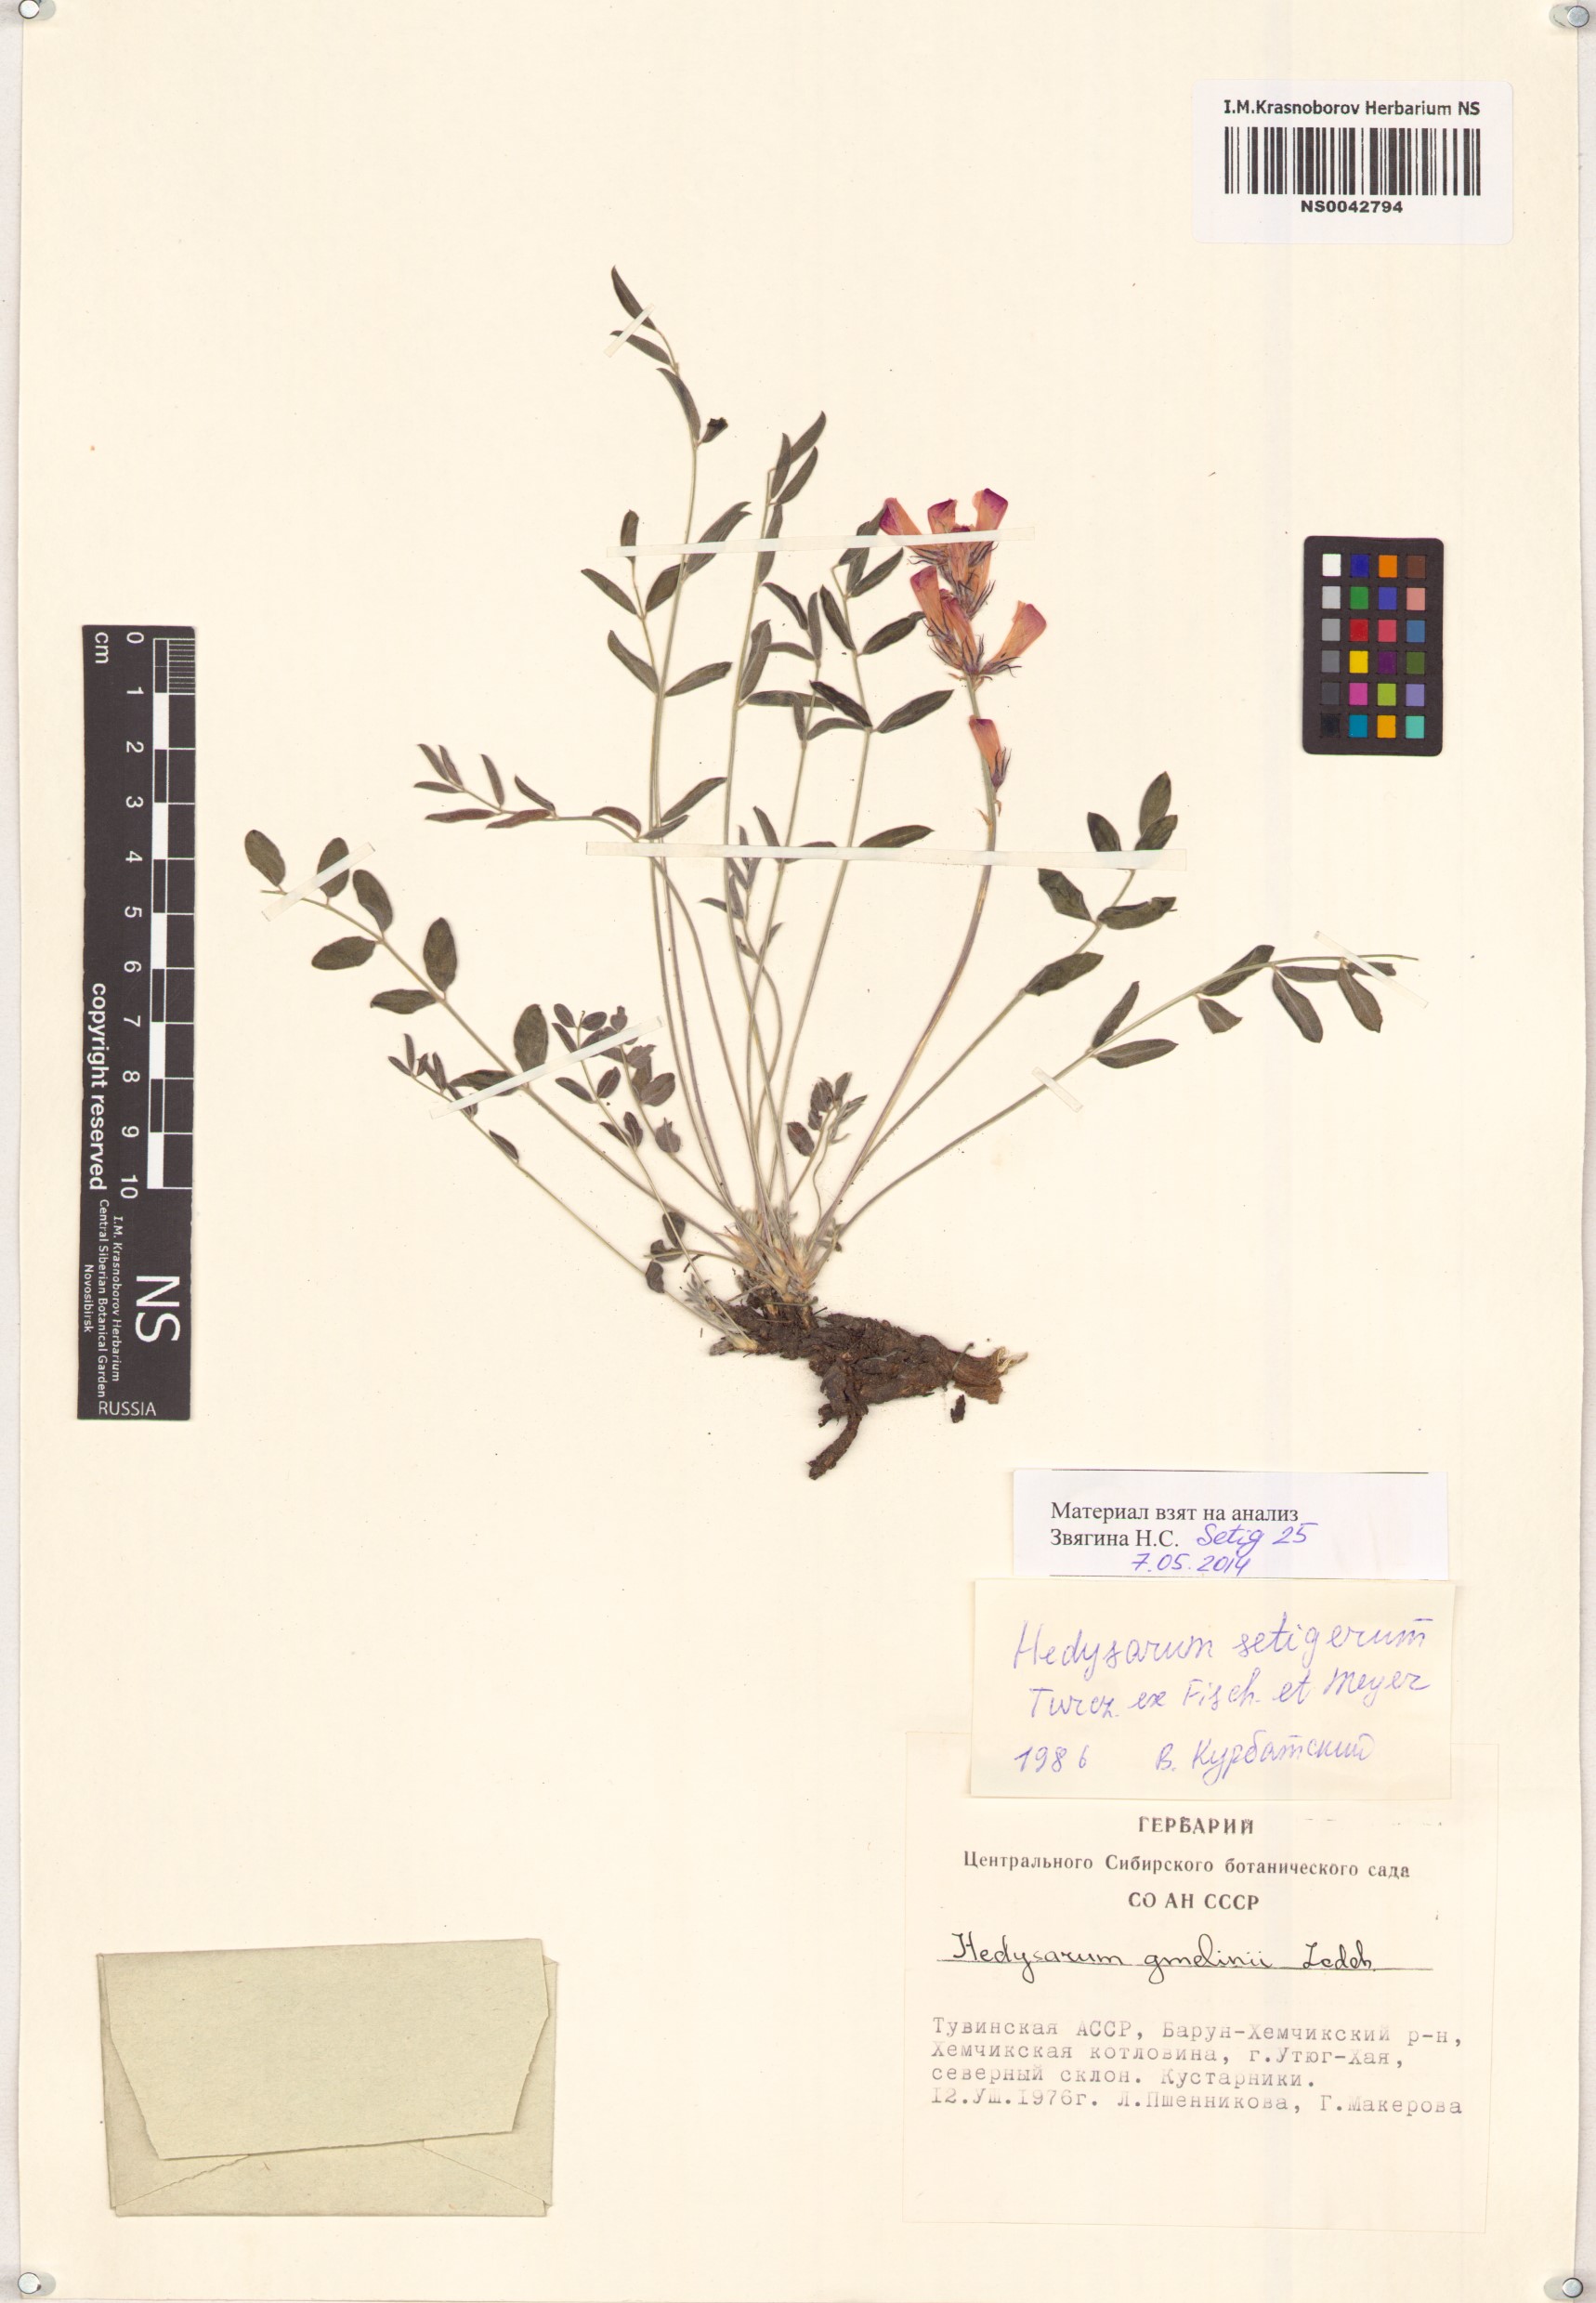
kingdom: Plantae
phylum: Tracheophyta
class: Magnoliopsida
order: Fabales
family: Fabaceae
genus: Hedysarum
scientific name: Hedysarum setigerum
